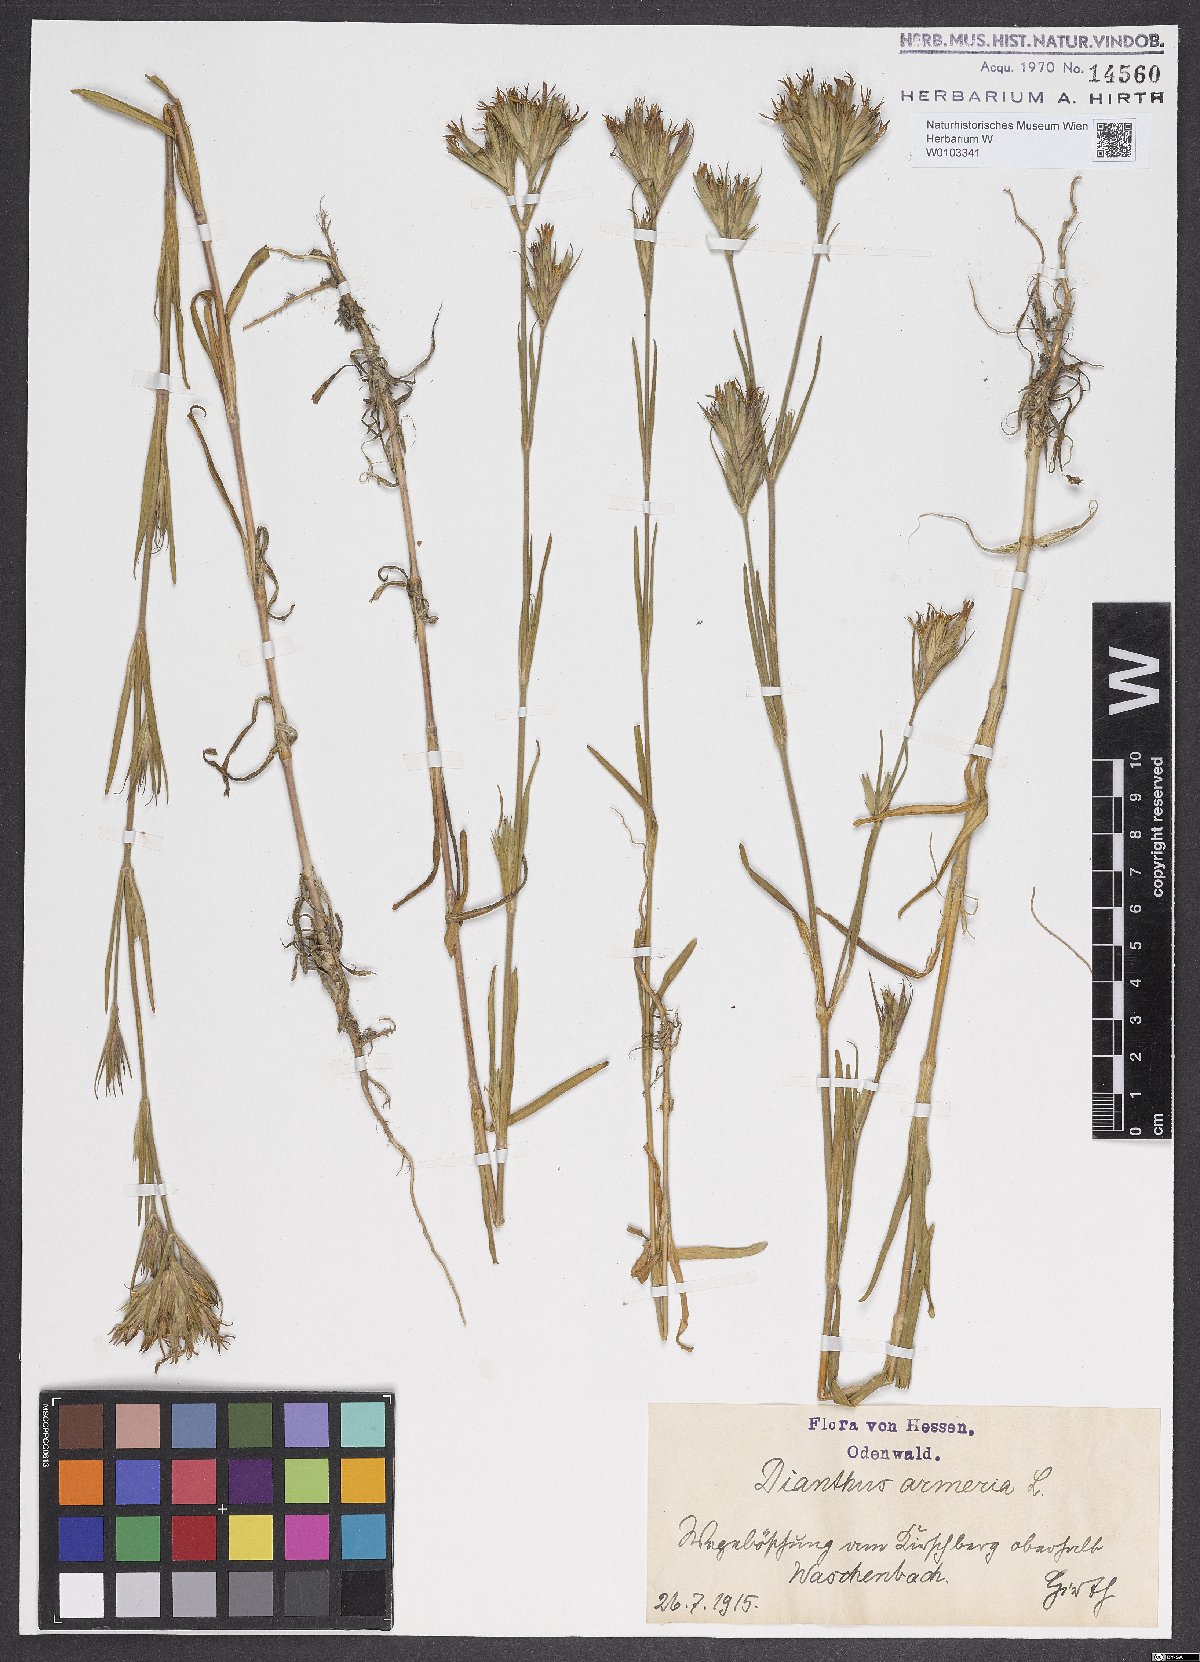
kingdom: Plantae
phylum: Tracheophyta
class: Magnoliopsida
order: Caryophyllales
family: Caryophyllaceae
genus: Dianthus
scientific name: Dianthus armeria
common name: Deptford pink
